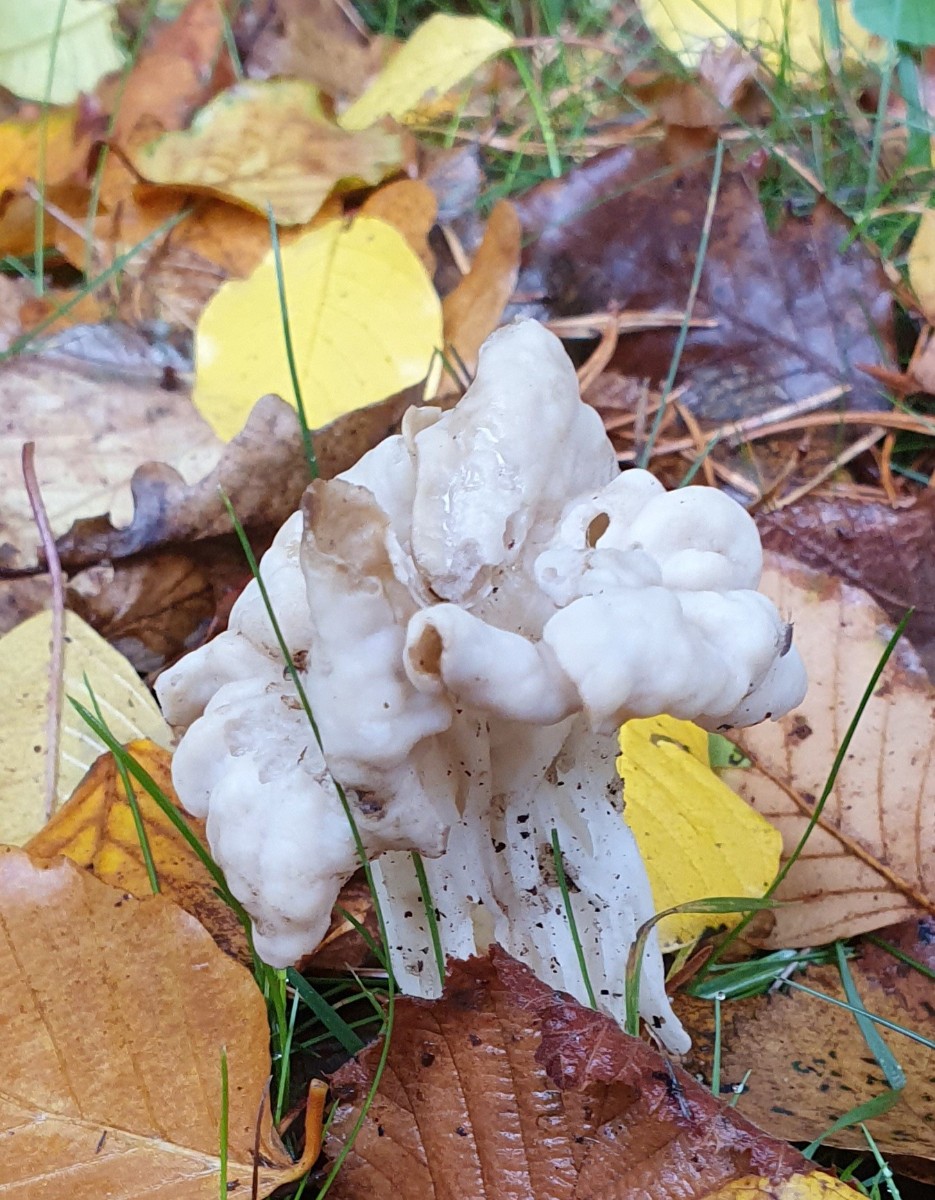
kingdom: Fungi
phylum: Ascomycota
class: Pezizomycetes
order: Pezizales
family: Helvellaceae
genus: Helvella
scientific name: Helvella crispa
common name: kruset foldhat
